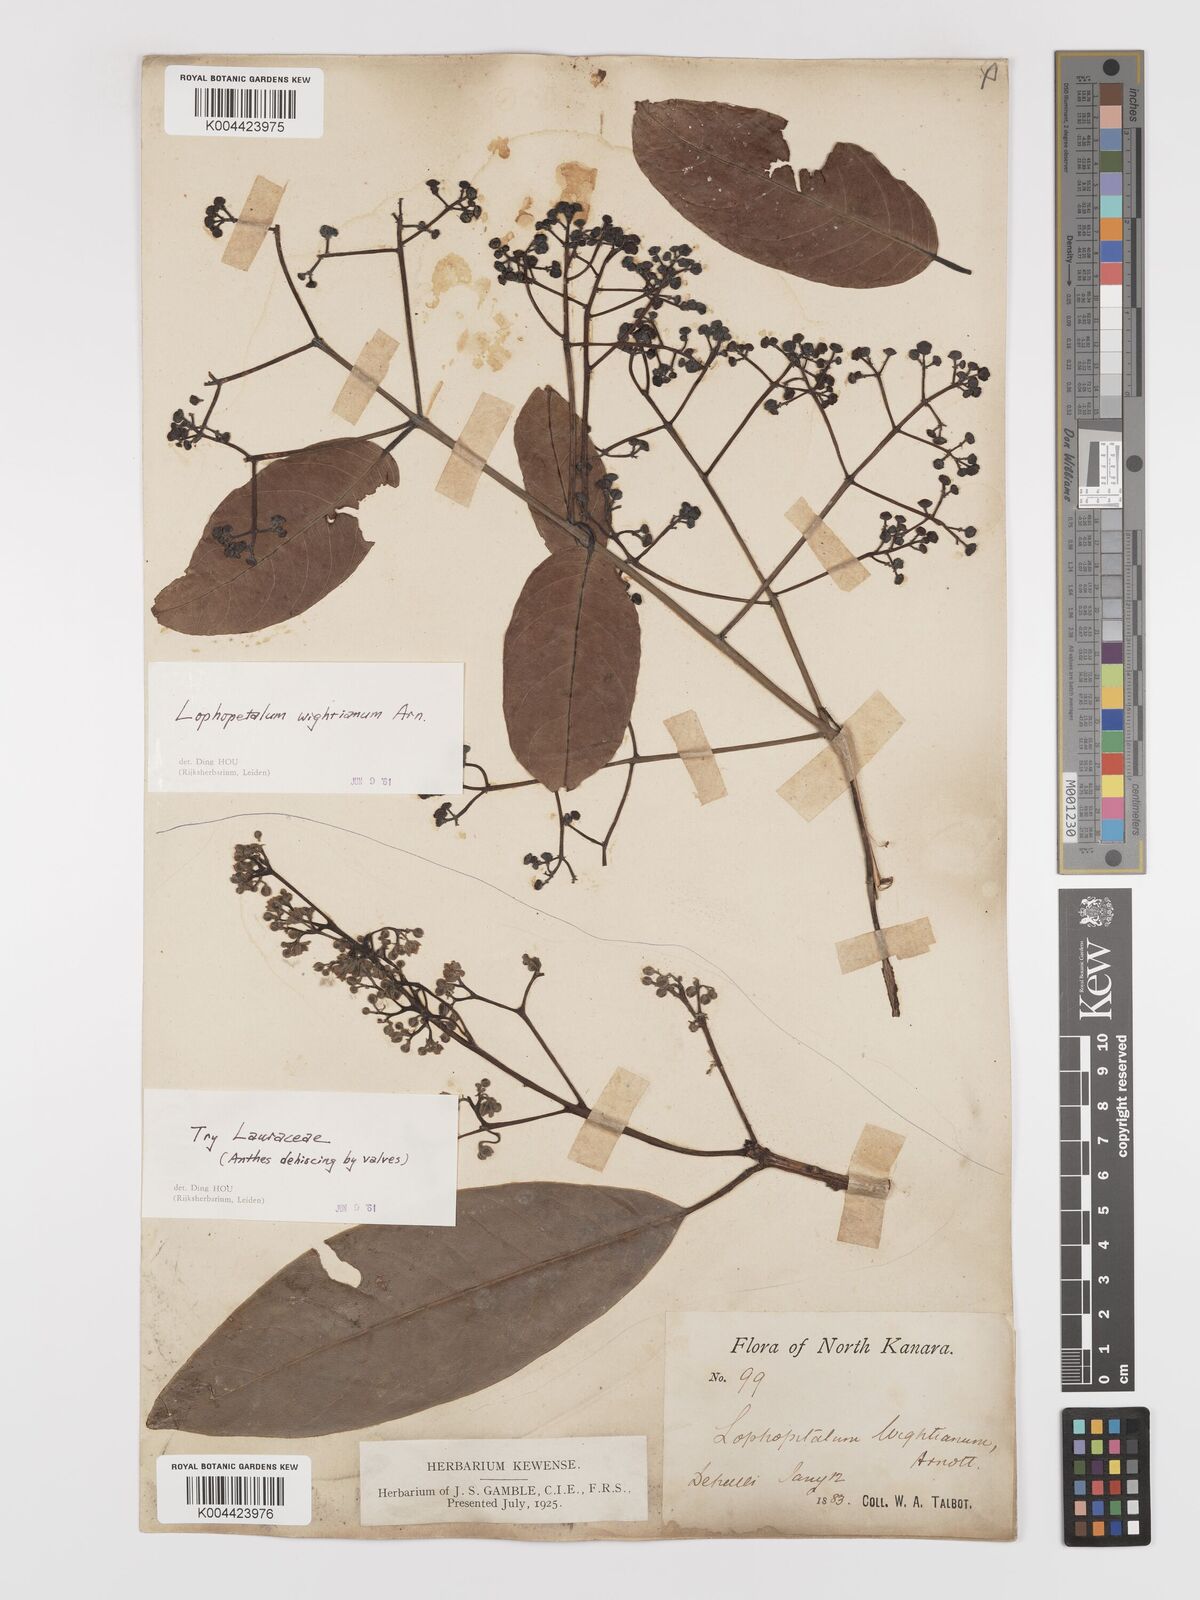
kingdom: Plantae
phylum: Tracheophyta
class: Magnoliopsida
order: Celastrales
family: Celastraceae
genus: Lophopetalum
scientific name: Lophopetalum wightianum
